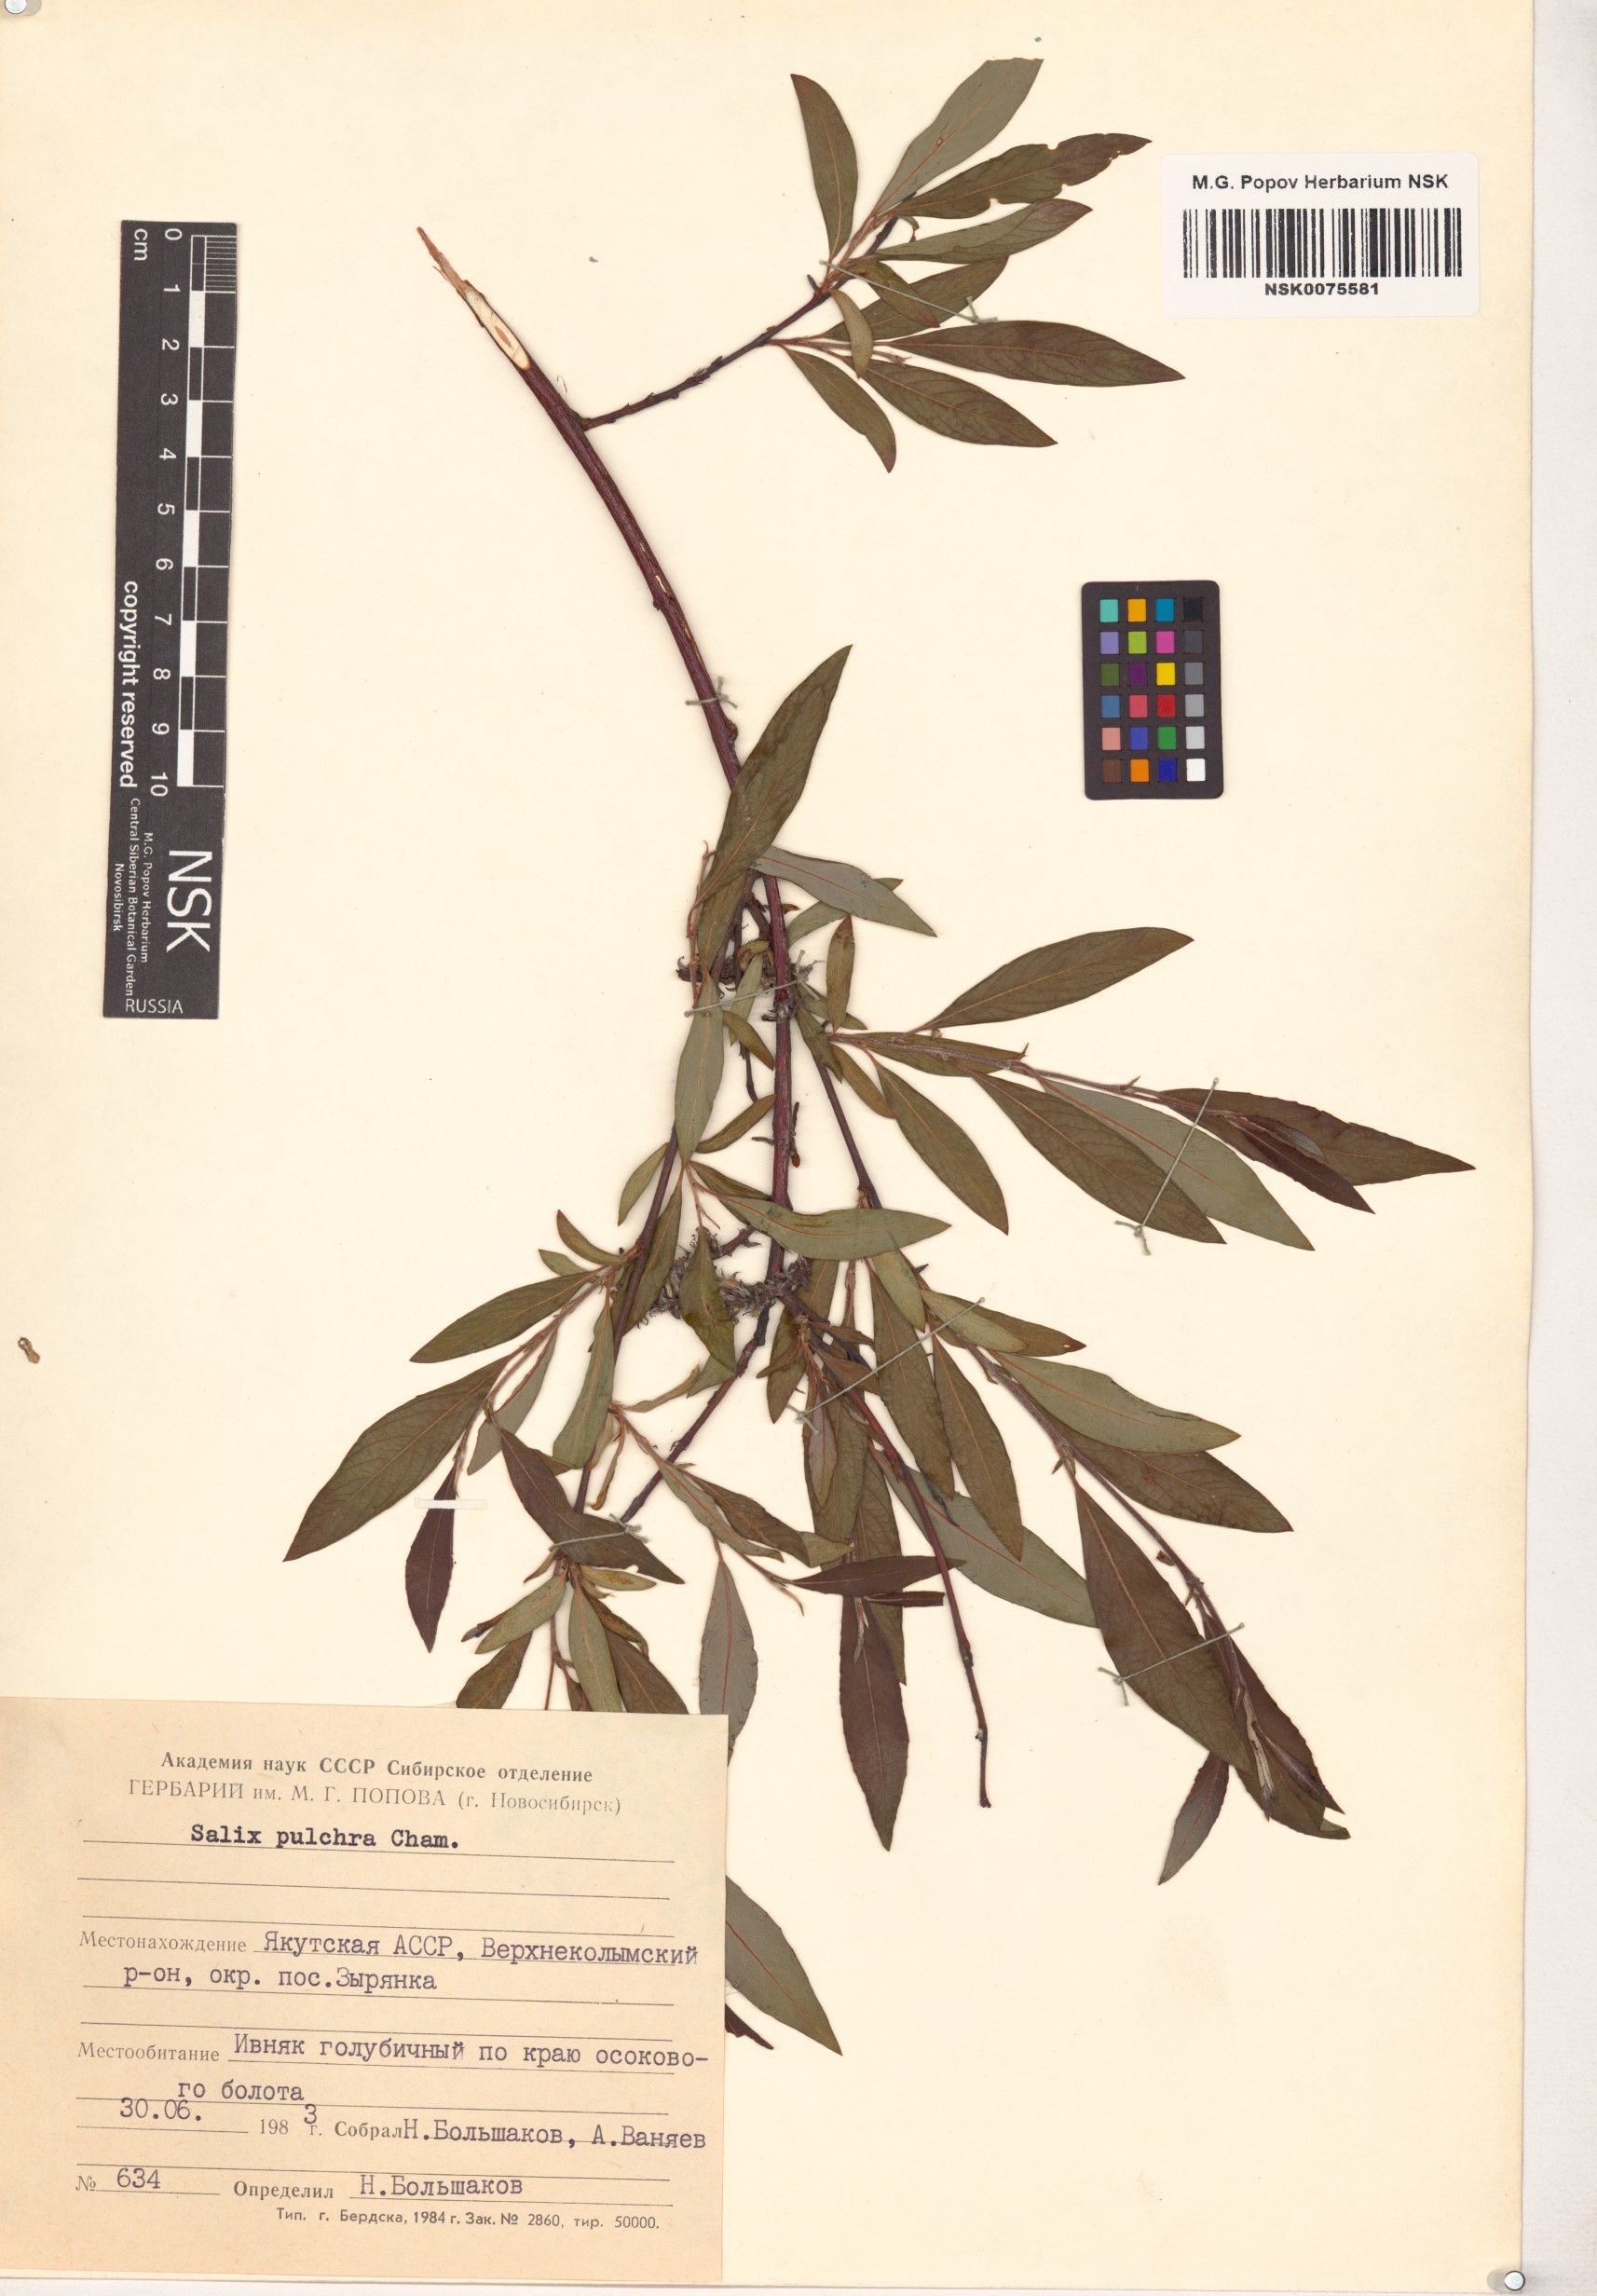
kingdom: Plantae
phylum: Tracheophyta
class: Magnoliopsida
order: Malpighiales
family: Salicaceae
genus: Salix
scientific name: Salix pulchra
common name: Diamond-leaved willow
